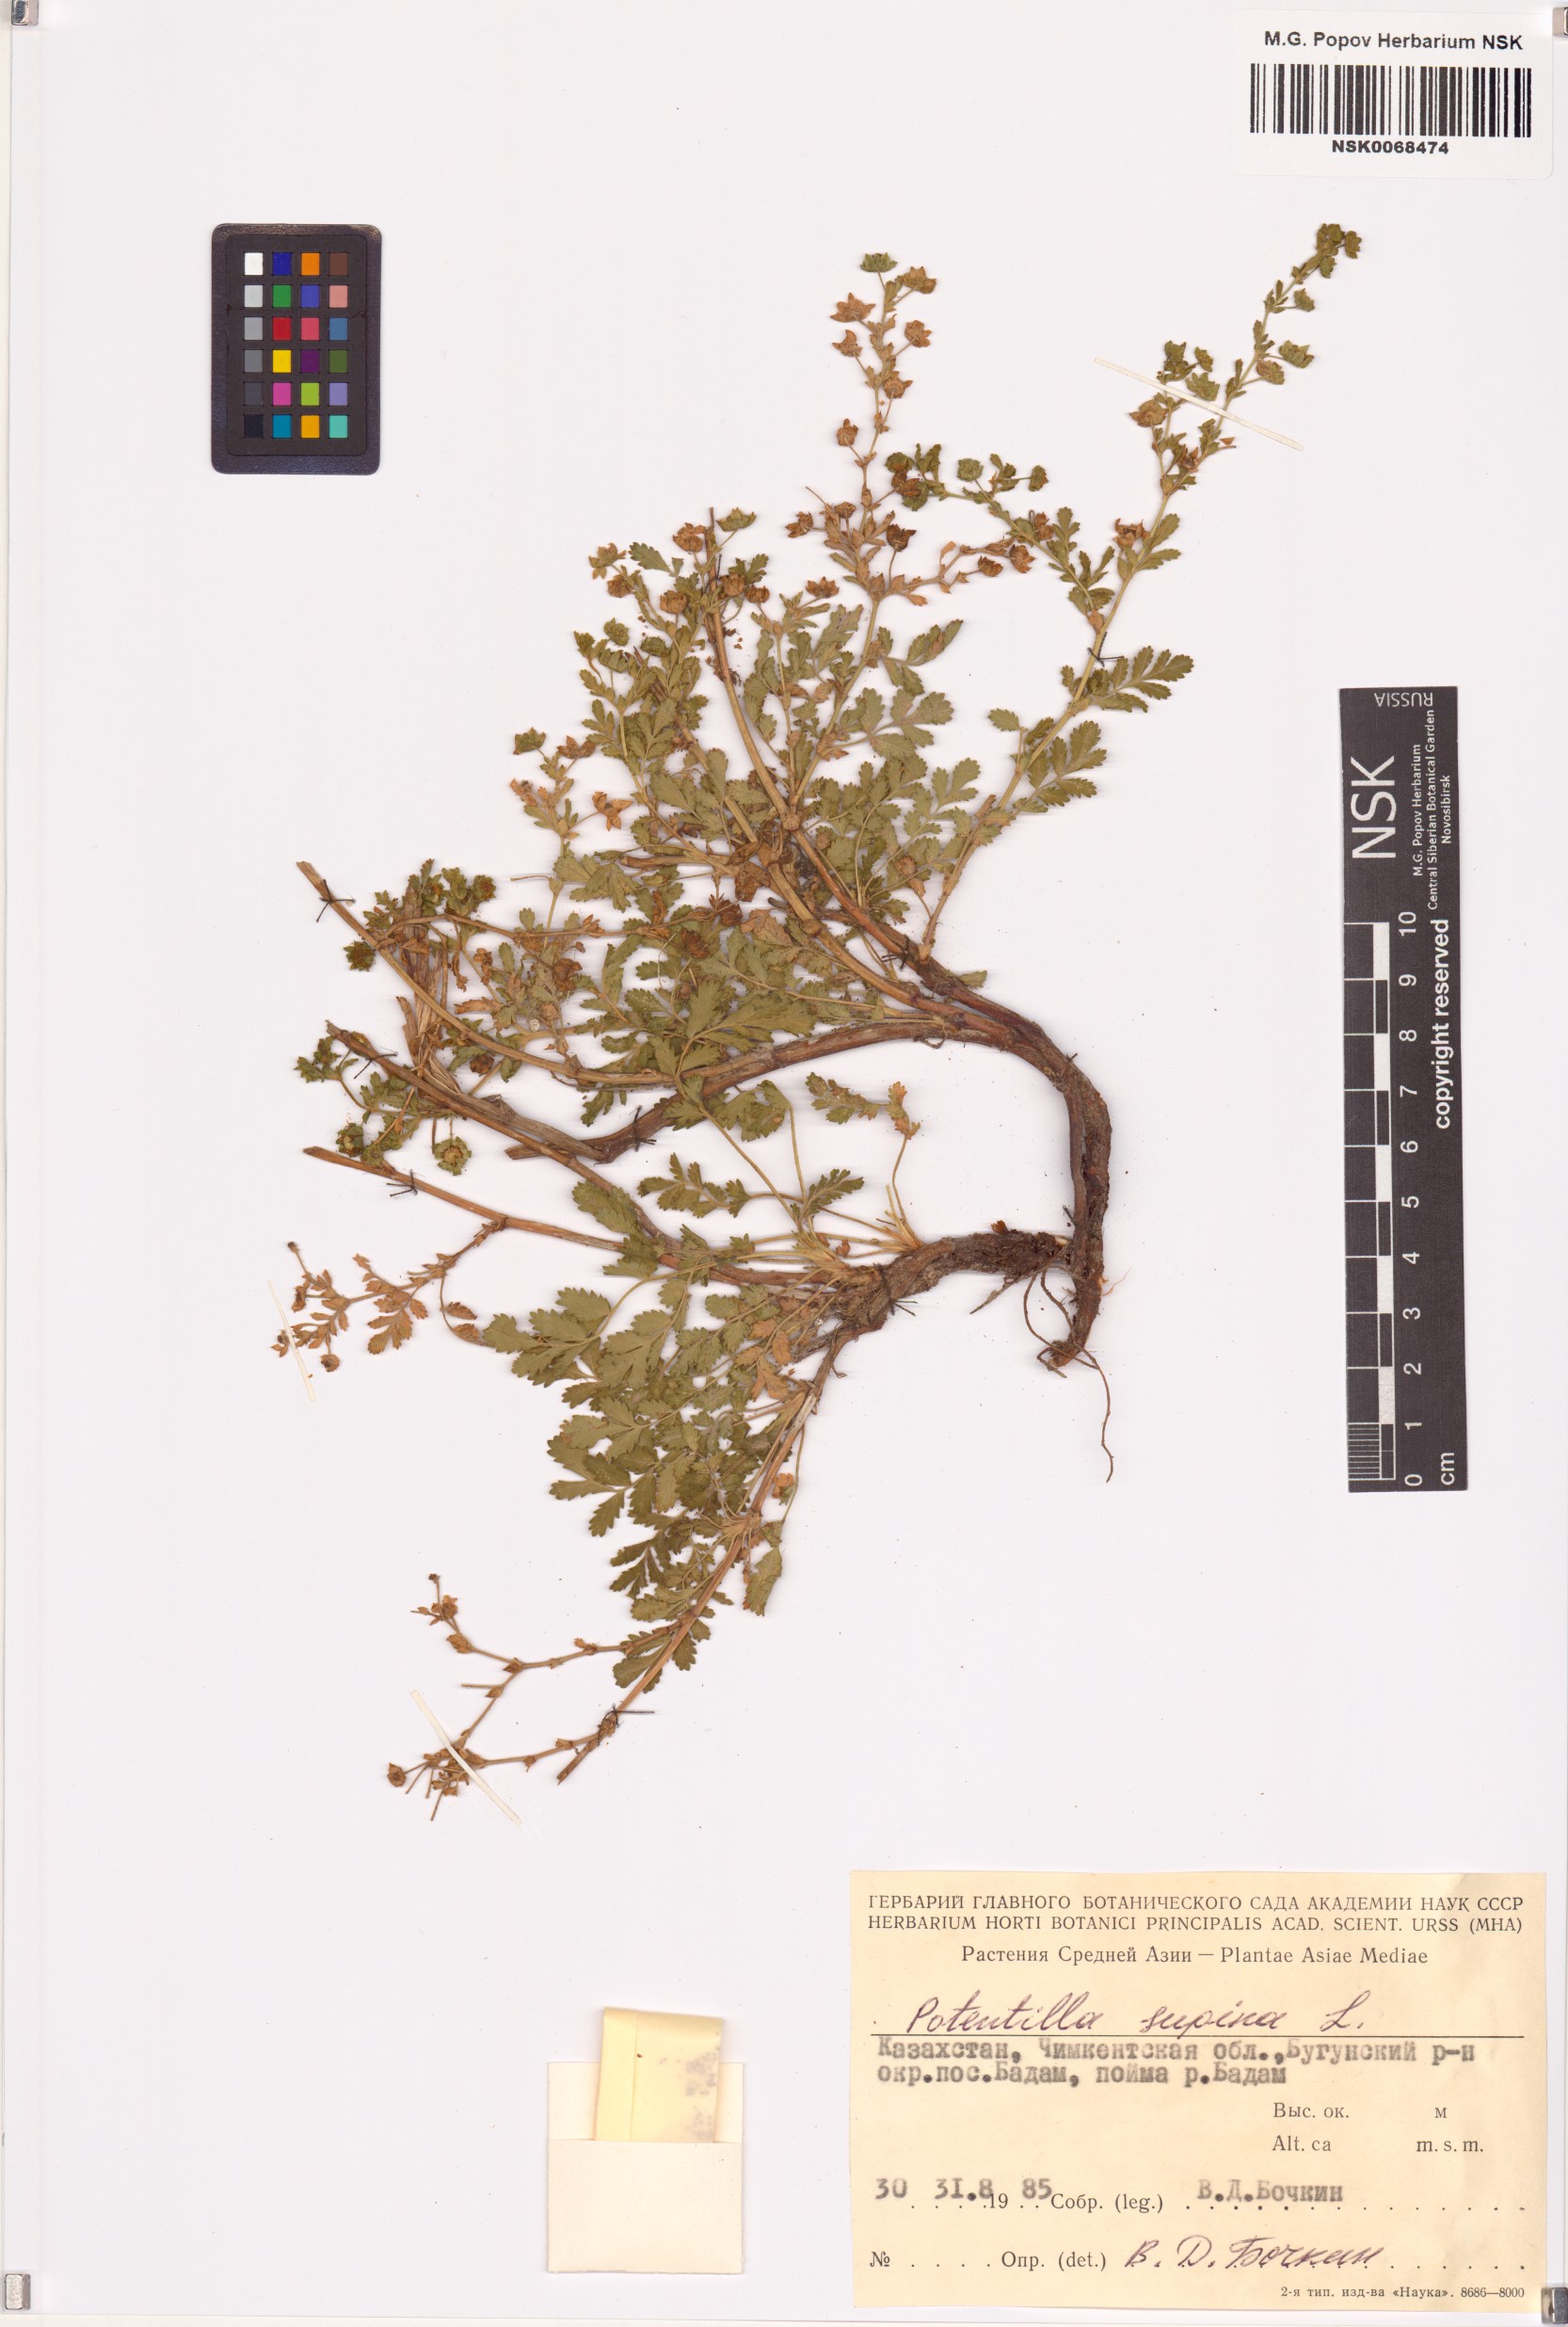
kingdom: Plantae
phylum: Tracheophyta
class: Magnoliopsida
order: Rosales
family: Rosaceae
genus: Potentilla
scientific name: Potentilla supina
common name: Prostrate cinquefoil
